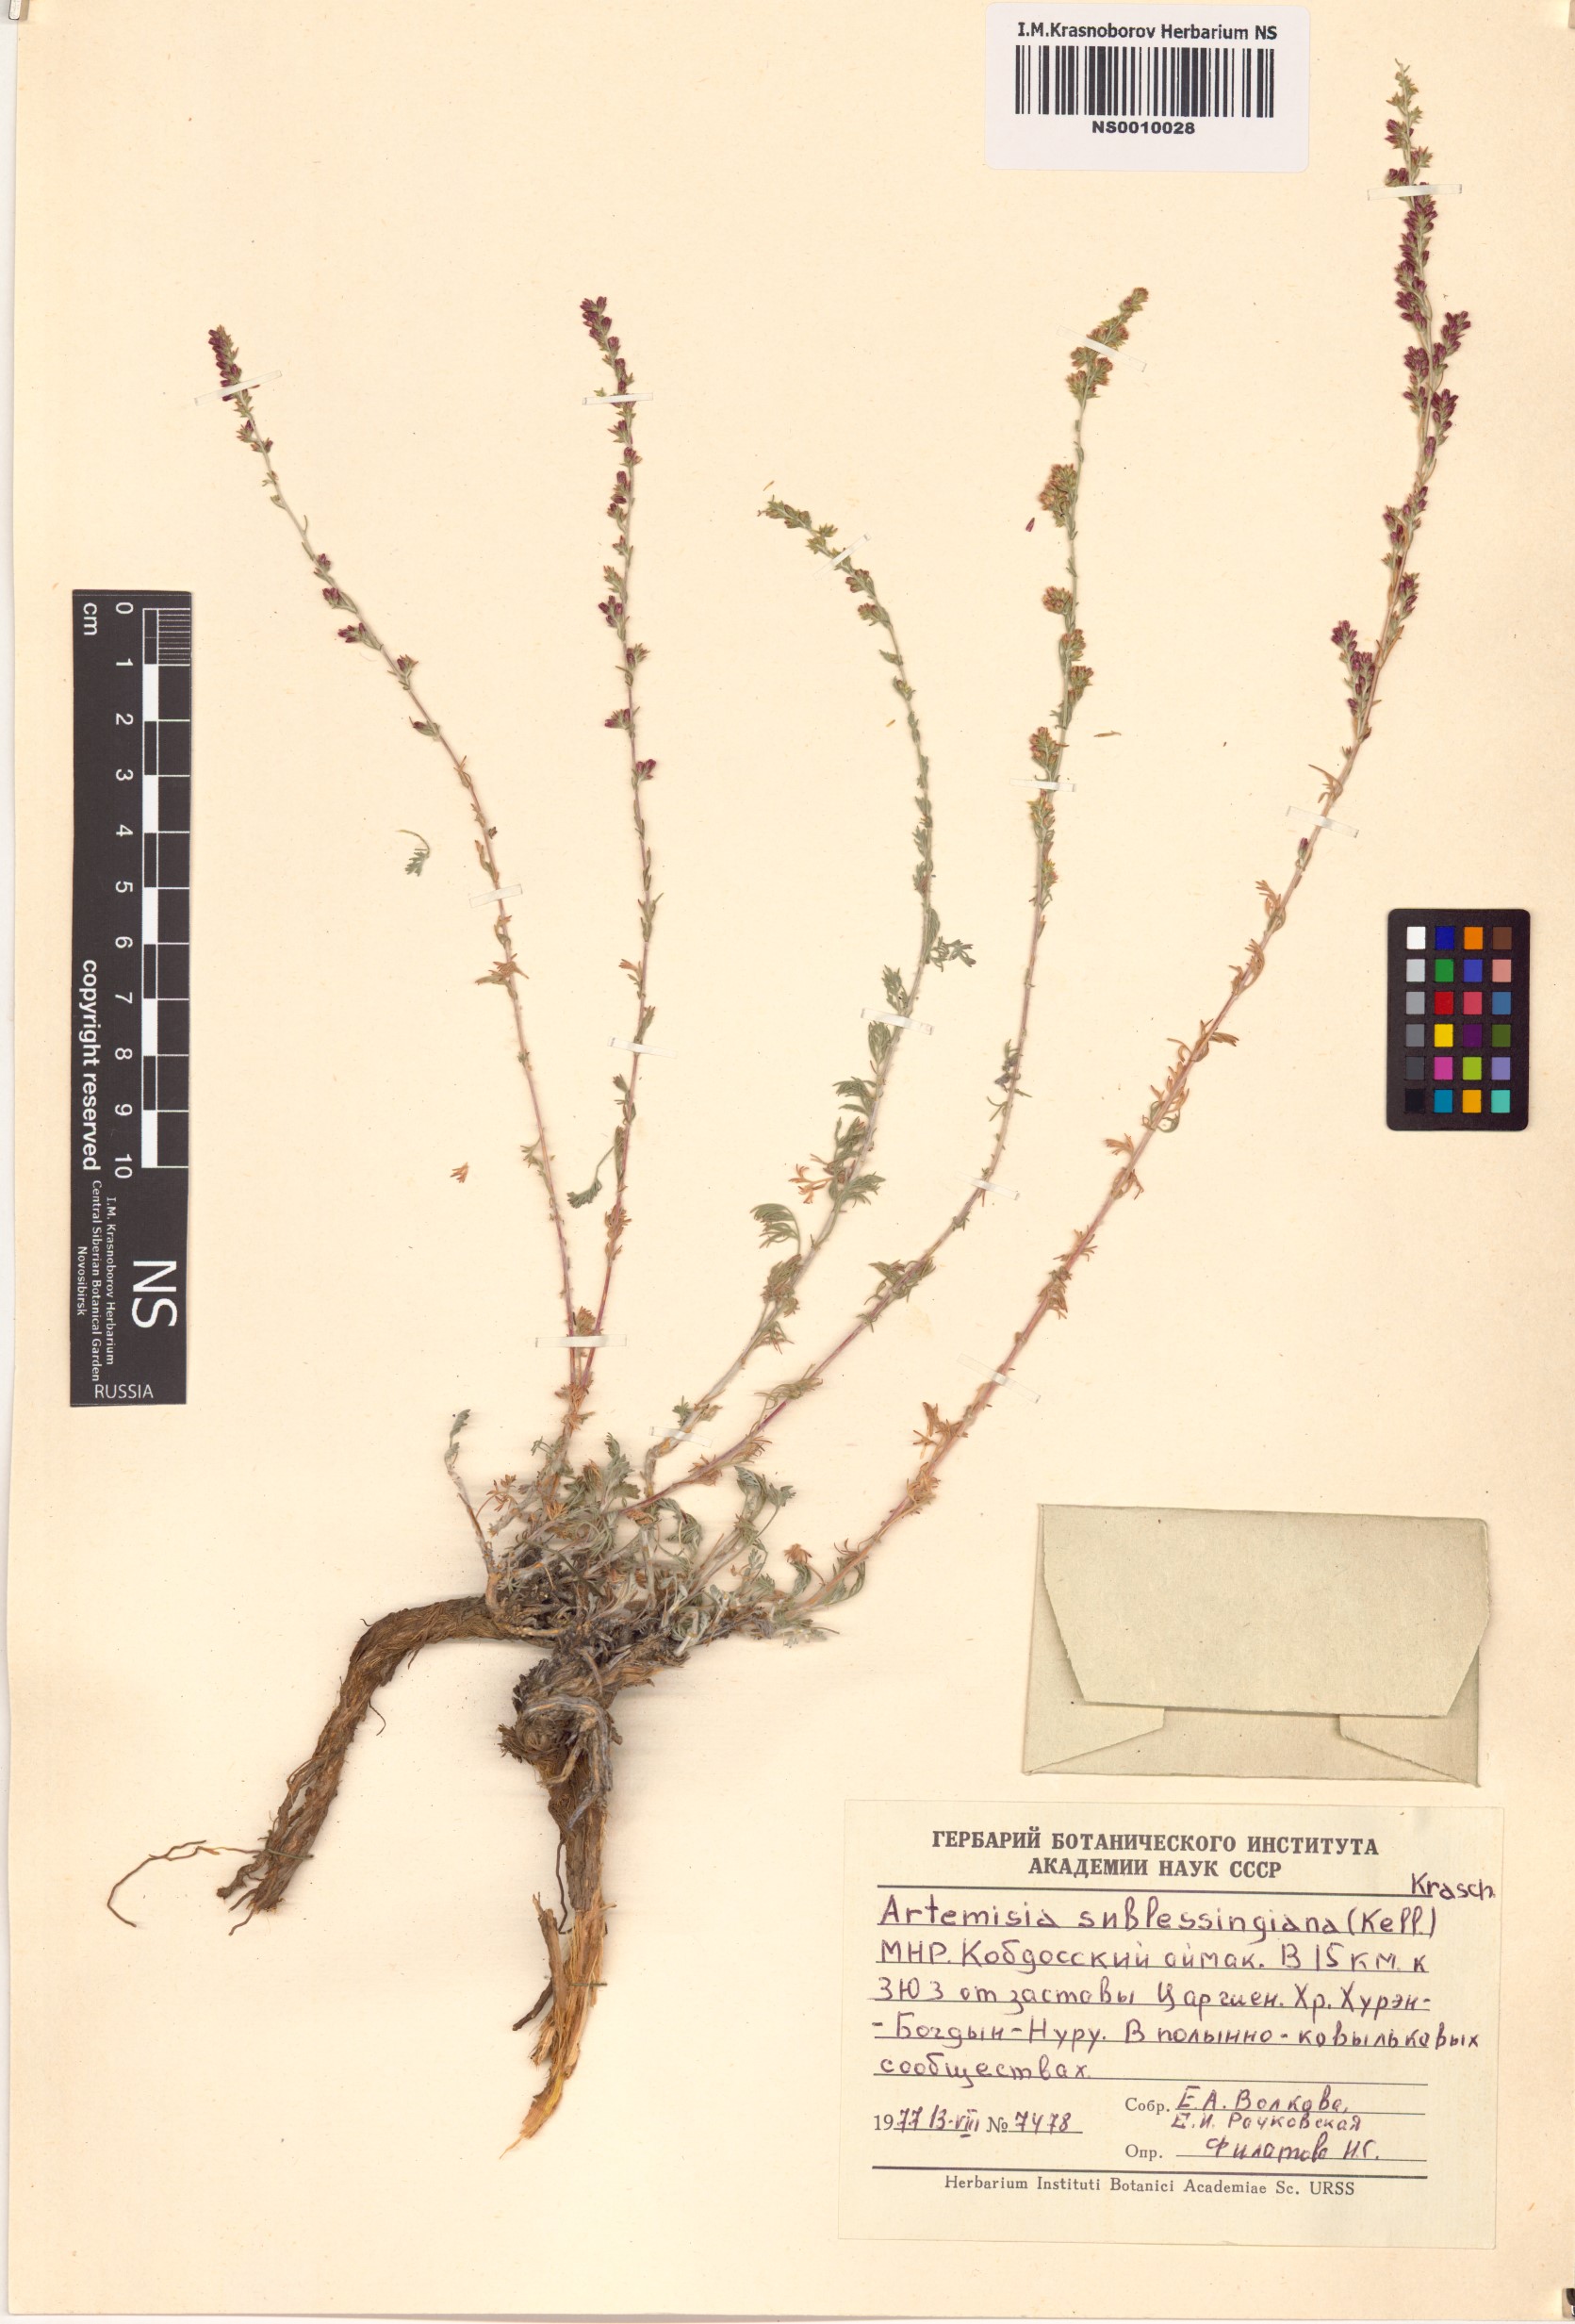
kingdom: Plantae
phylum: Tracheophyta
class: Magnoliopsida
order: Asterales
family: Asteraceae
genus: Artemisia
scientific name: Artemisia sublessingiana
